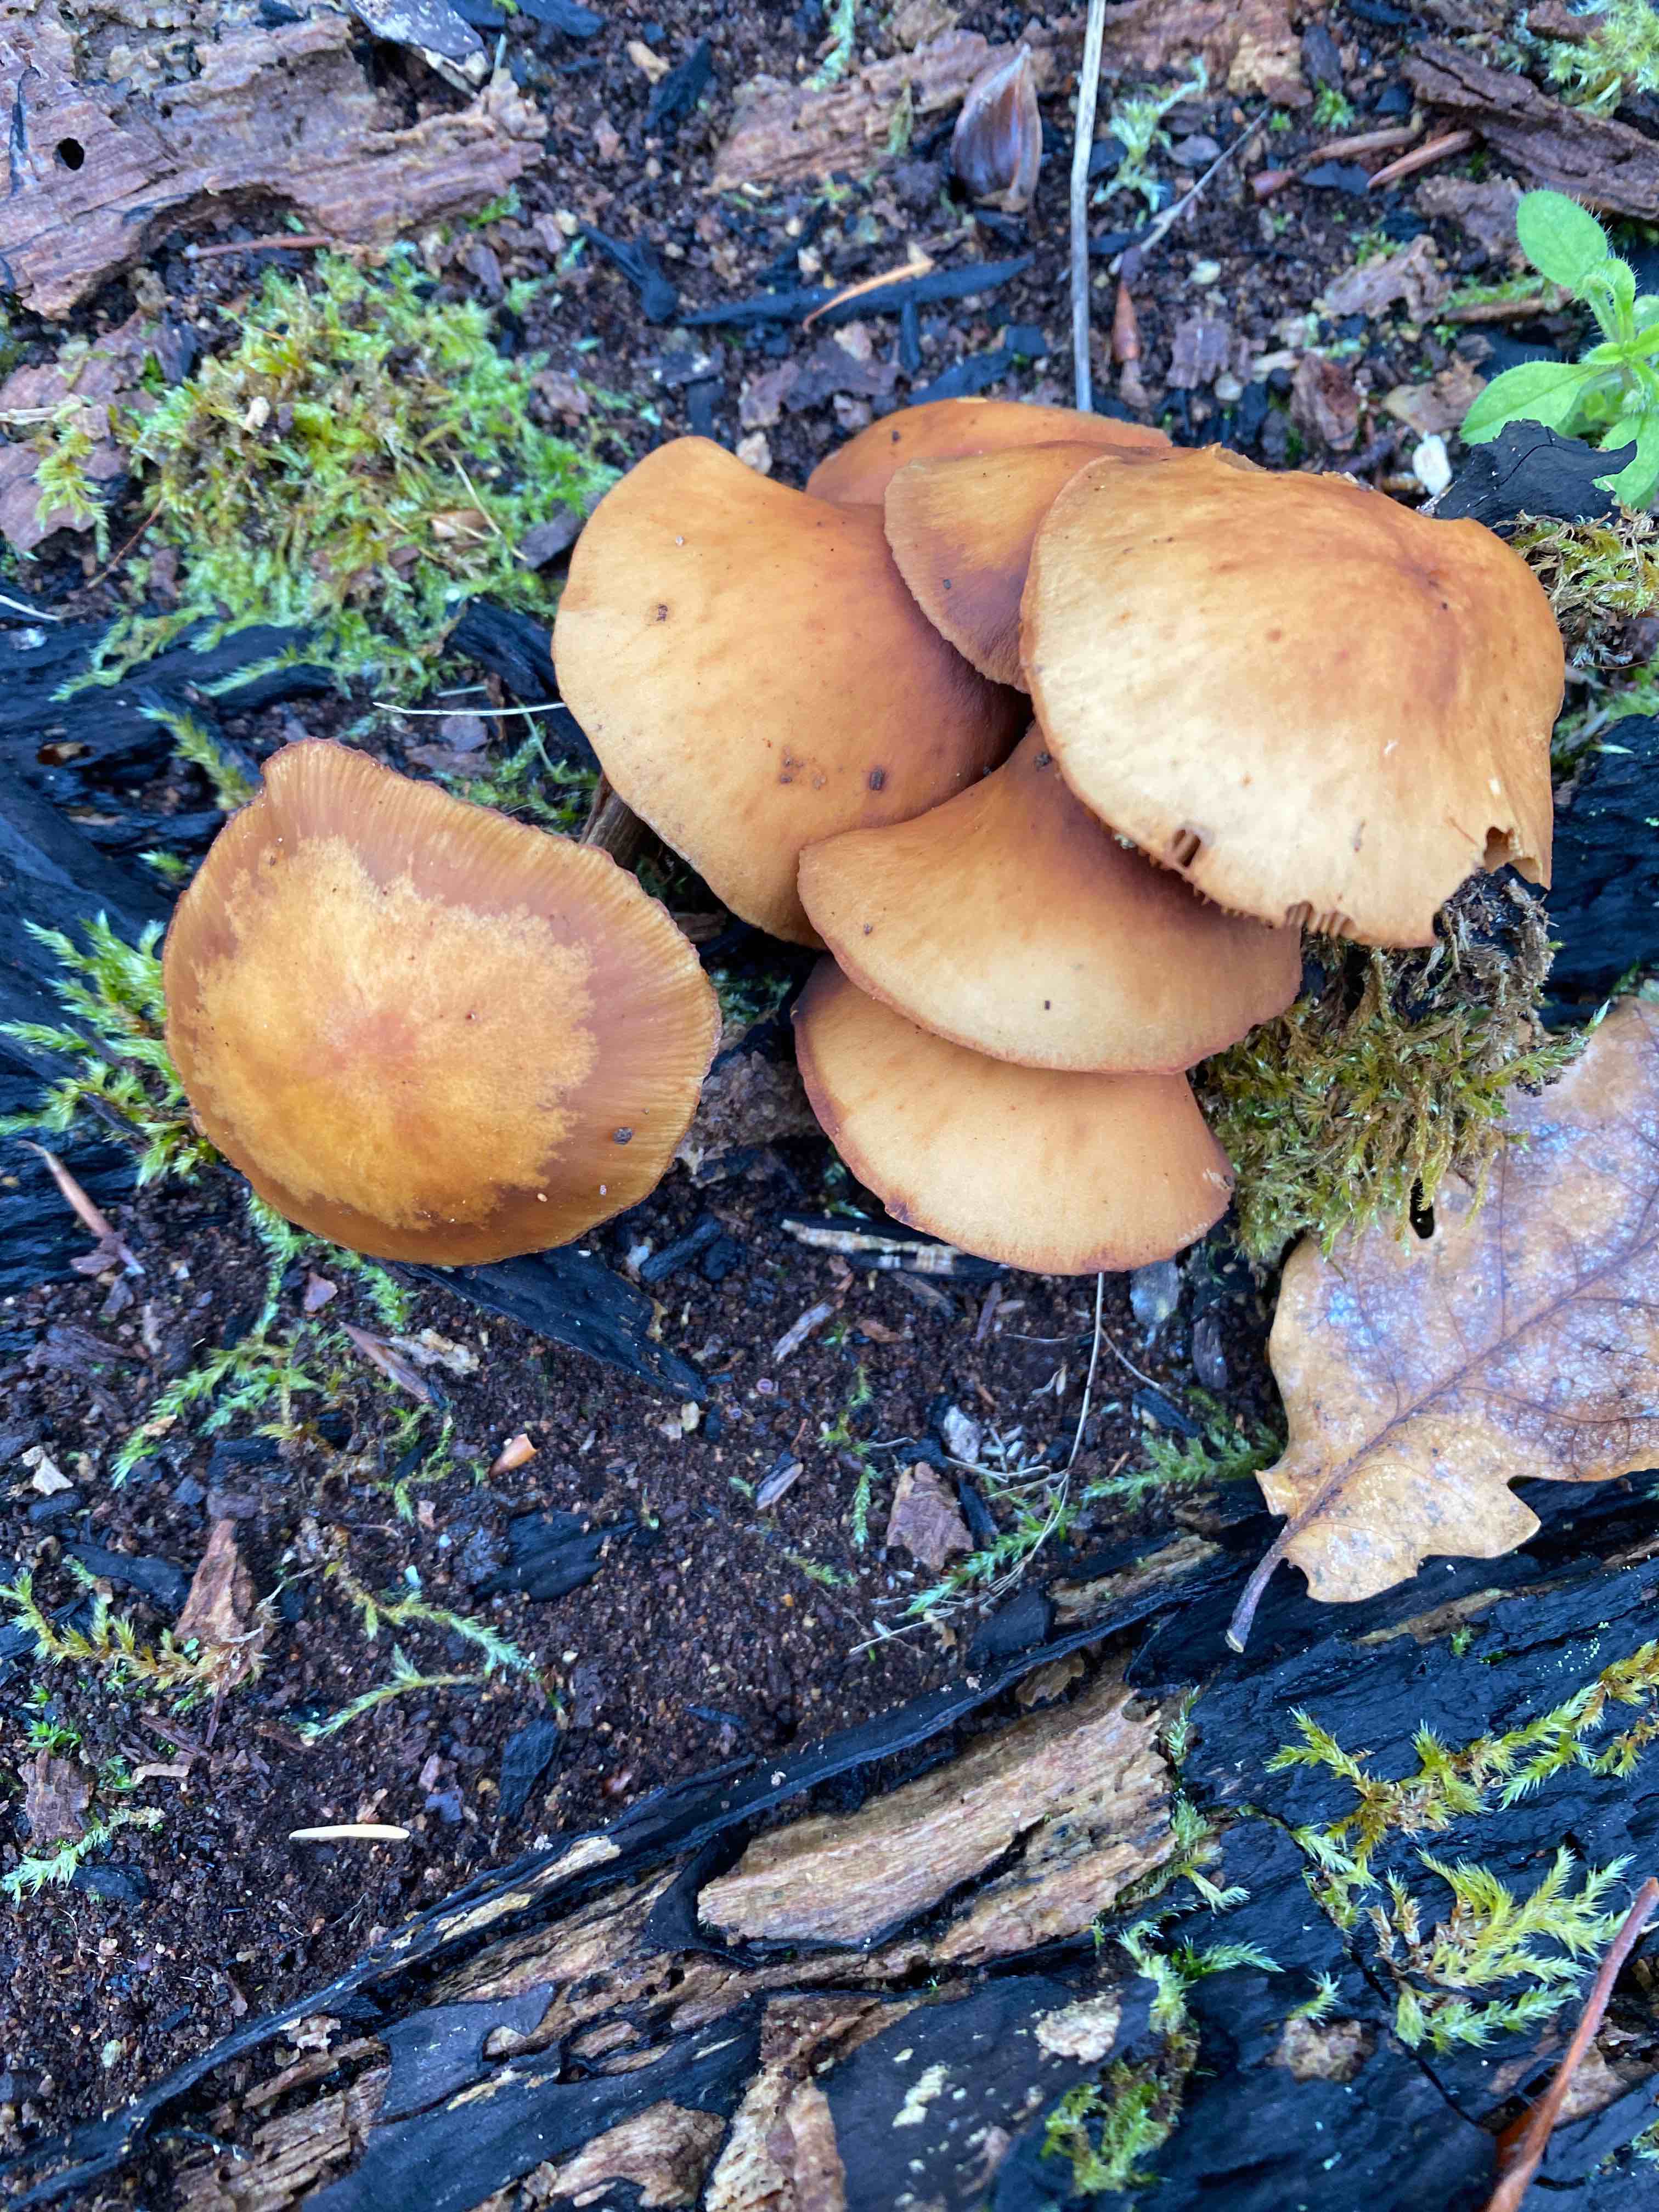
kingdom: Fungi
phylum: Basidiomycota
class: Agaricomycetes
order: Agaricales
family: Hymenogastraceae
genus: Galerina
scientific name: Galerina marginata
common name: randbæltet hjelmhat
